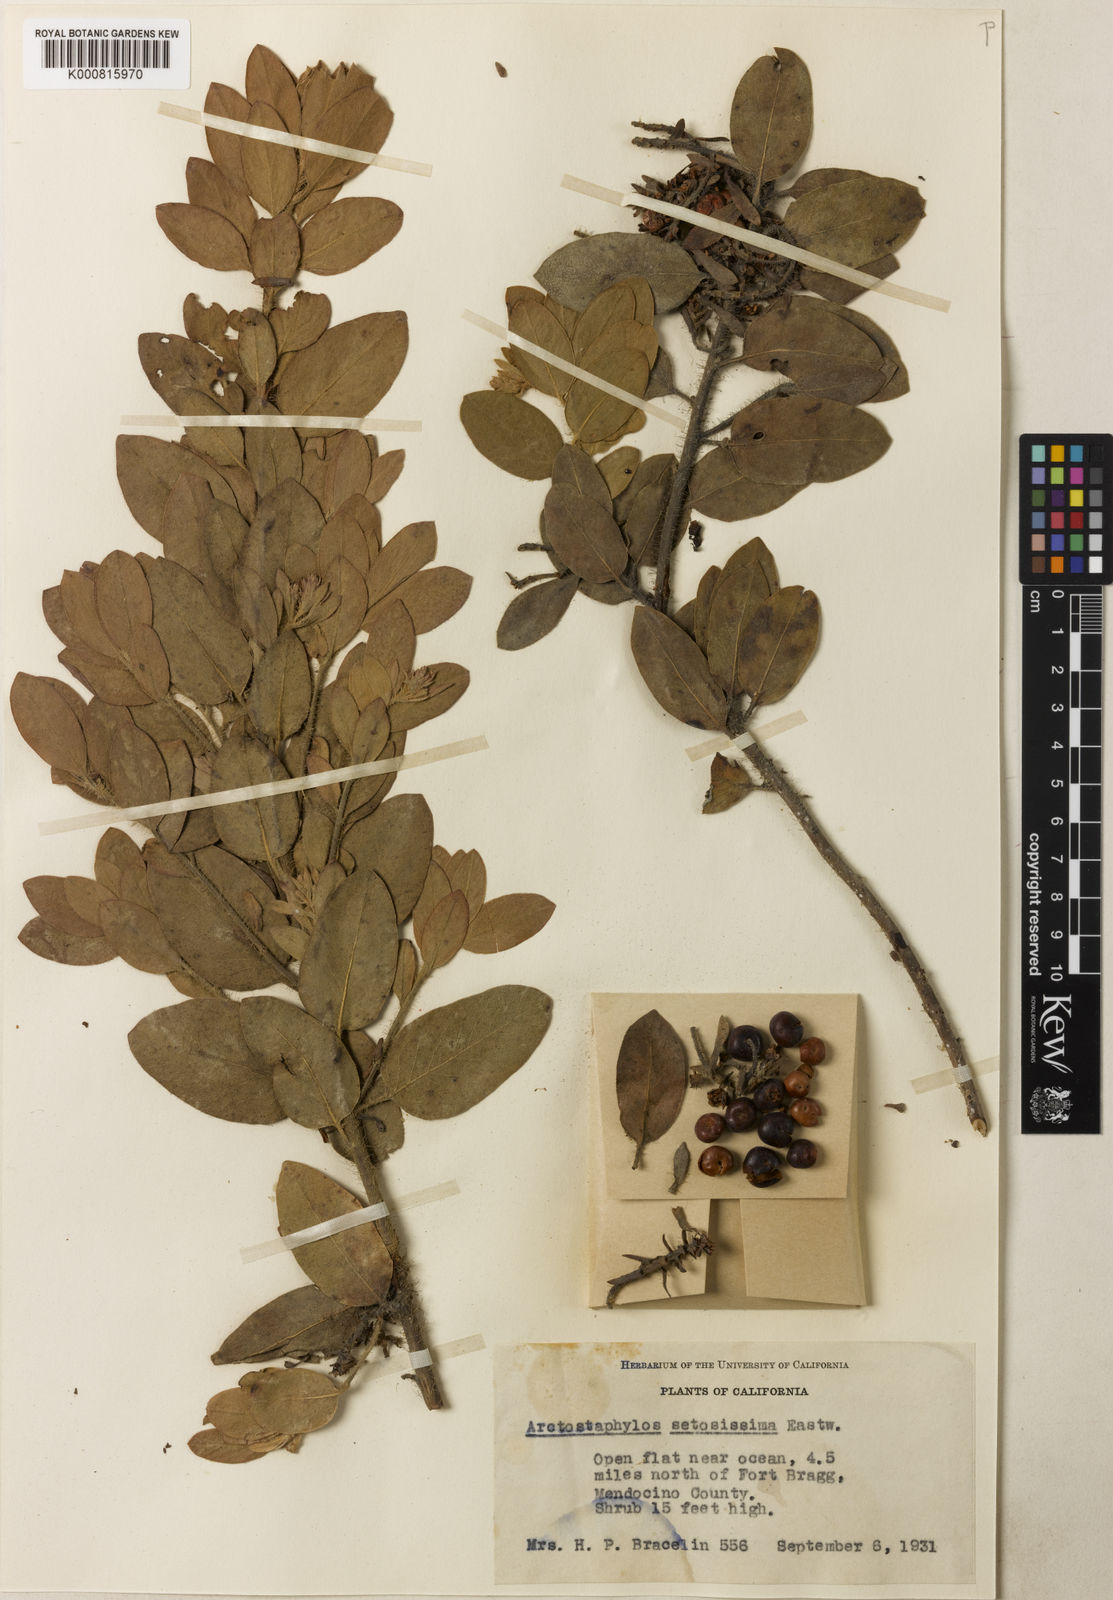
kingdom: Plantae
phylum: Tracheophyta
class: Magnoliopsida
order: Ericales
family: Ericaceae
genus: Arctostaphylos
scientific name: Arctostaphylos columbiana
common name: Bristly bearberry
